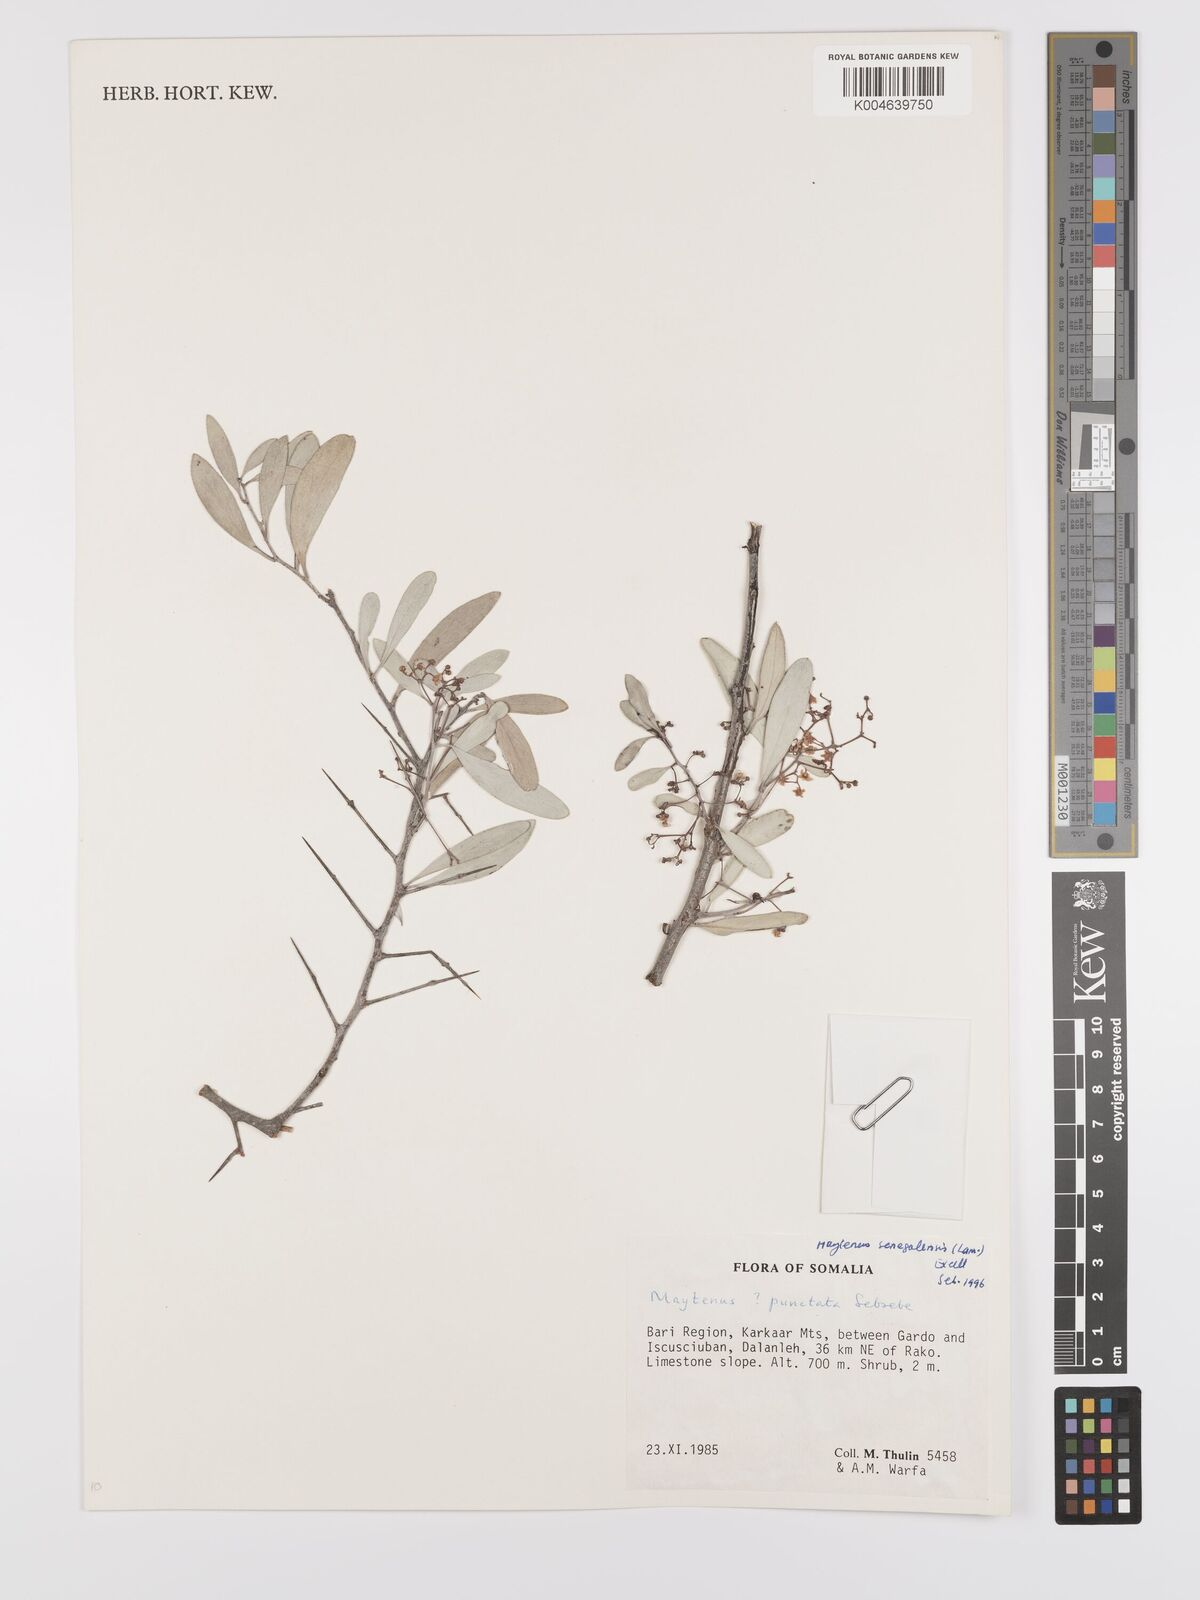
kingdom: Plantae
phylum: Tracheophyta
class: Magnoliopsida
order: Celastrales
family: Celastraceae
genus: Gymnosporia
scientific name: Gymnosporia punctata
